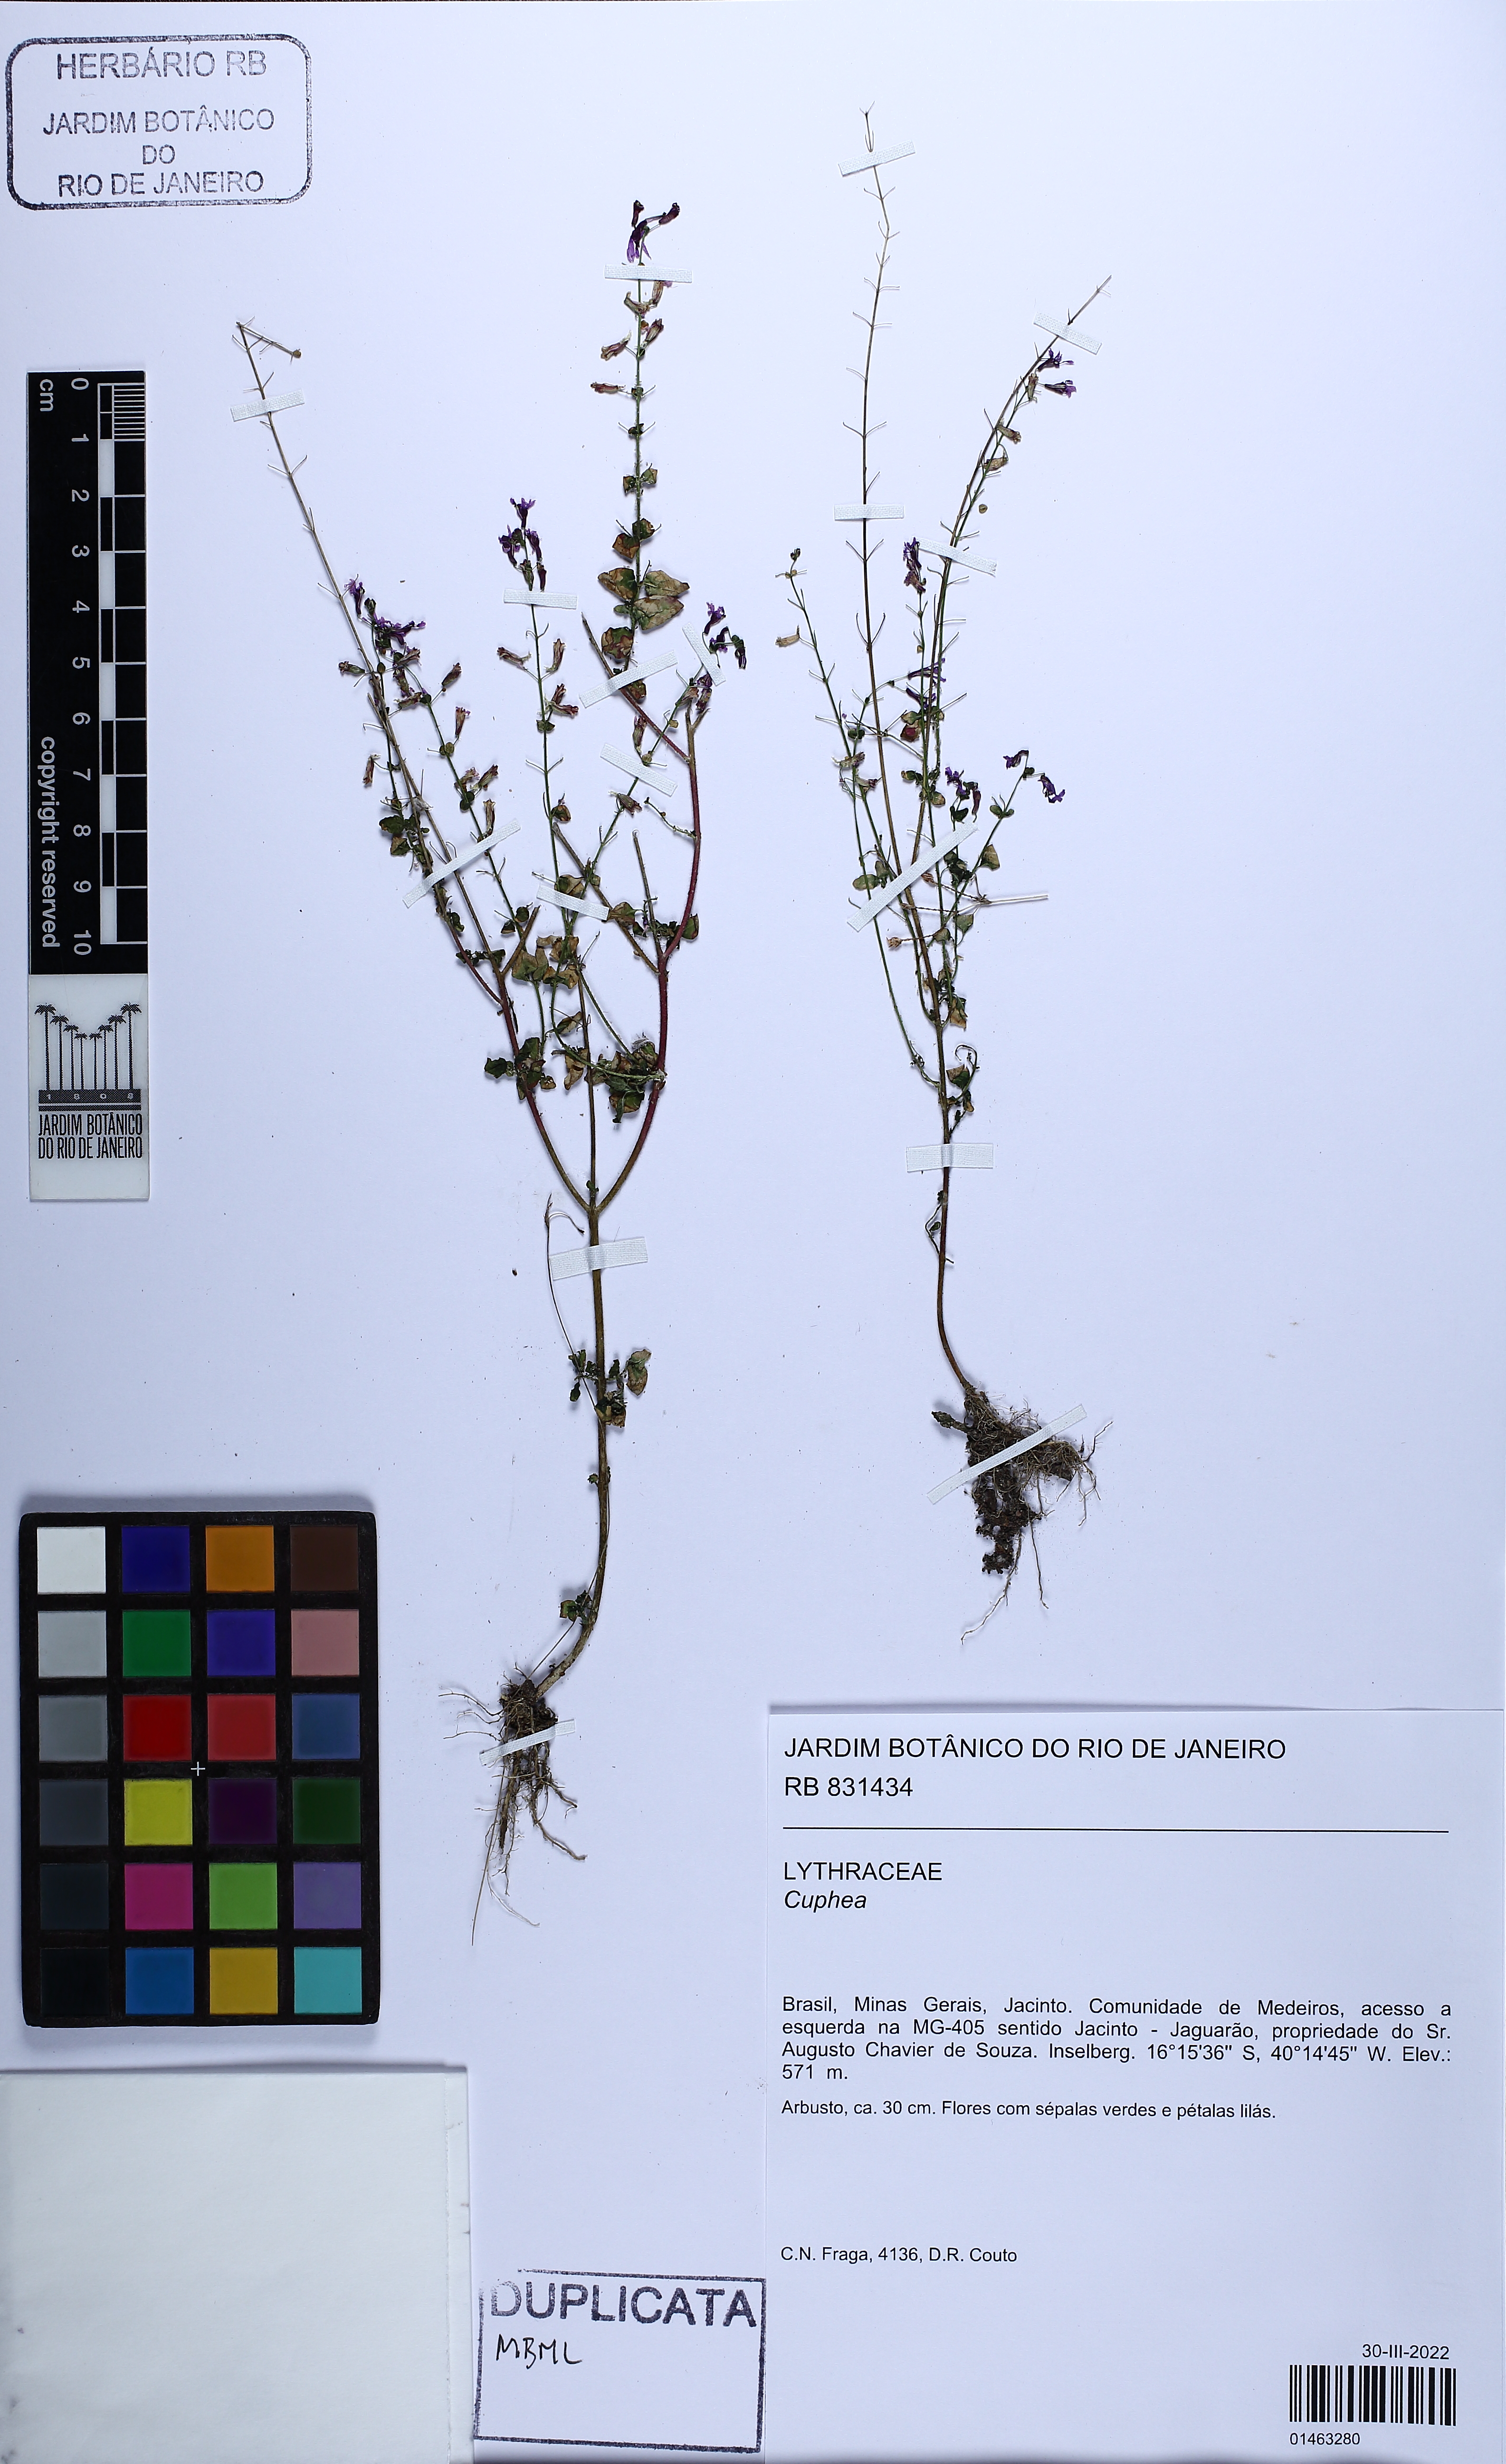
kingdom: Plantae
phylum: Tracheophyta
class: Magnoliopsida
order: Myrtales
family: Lythraceae
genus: Cuphea
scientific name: Cuphea
